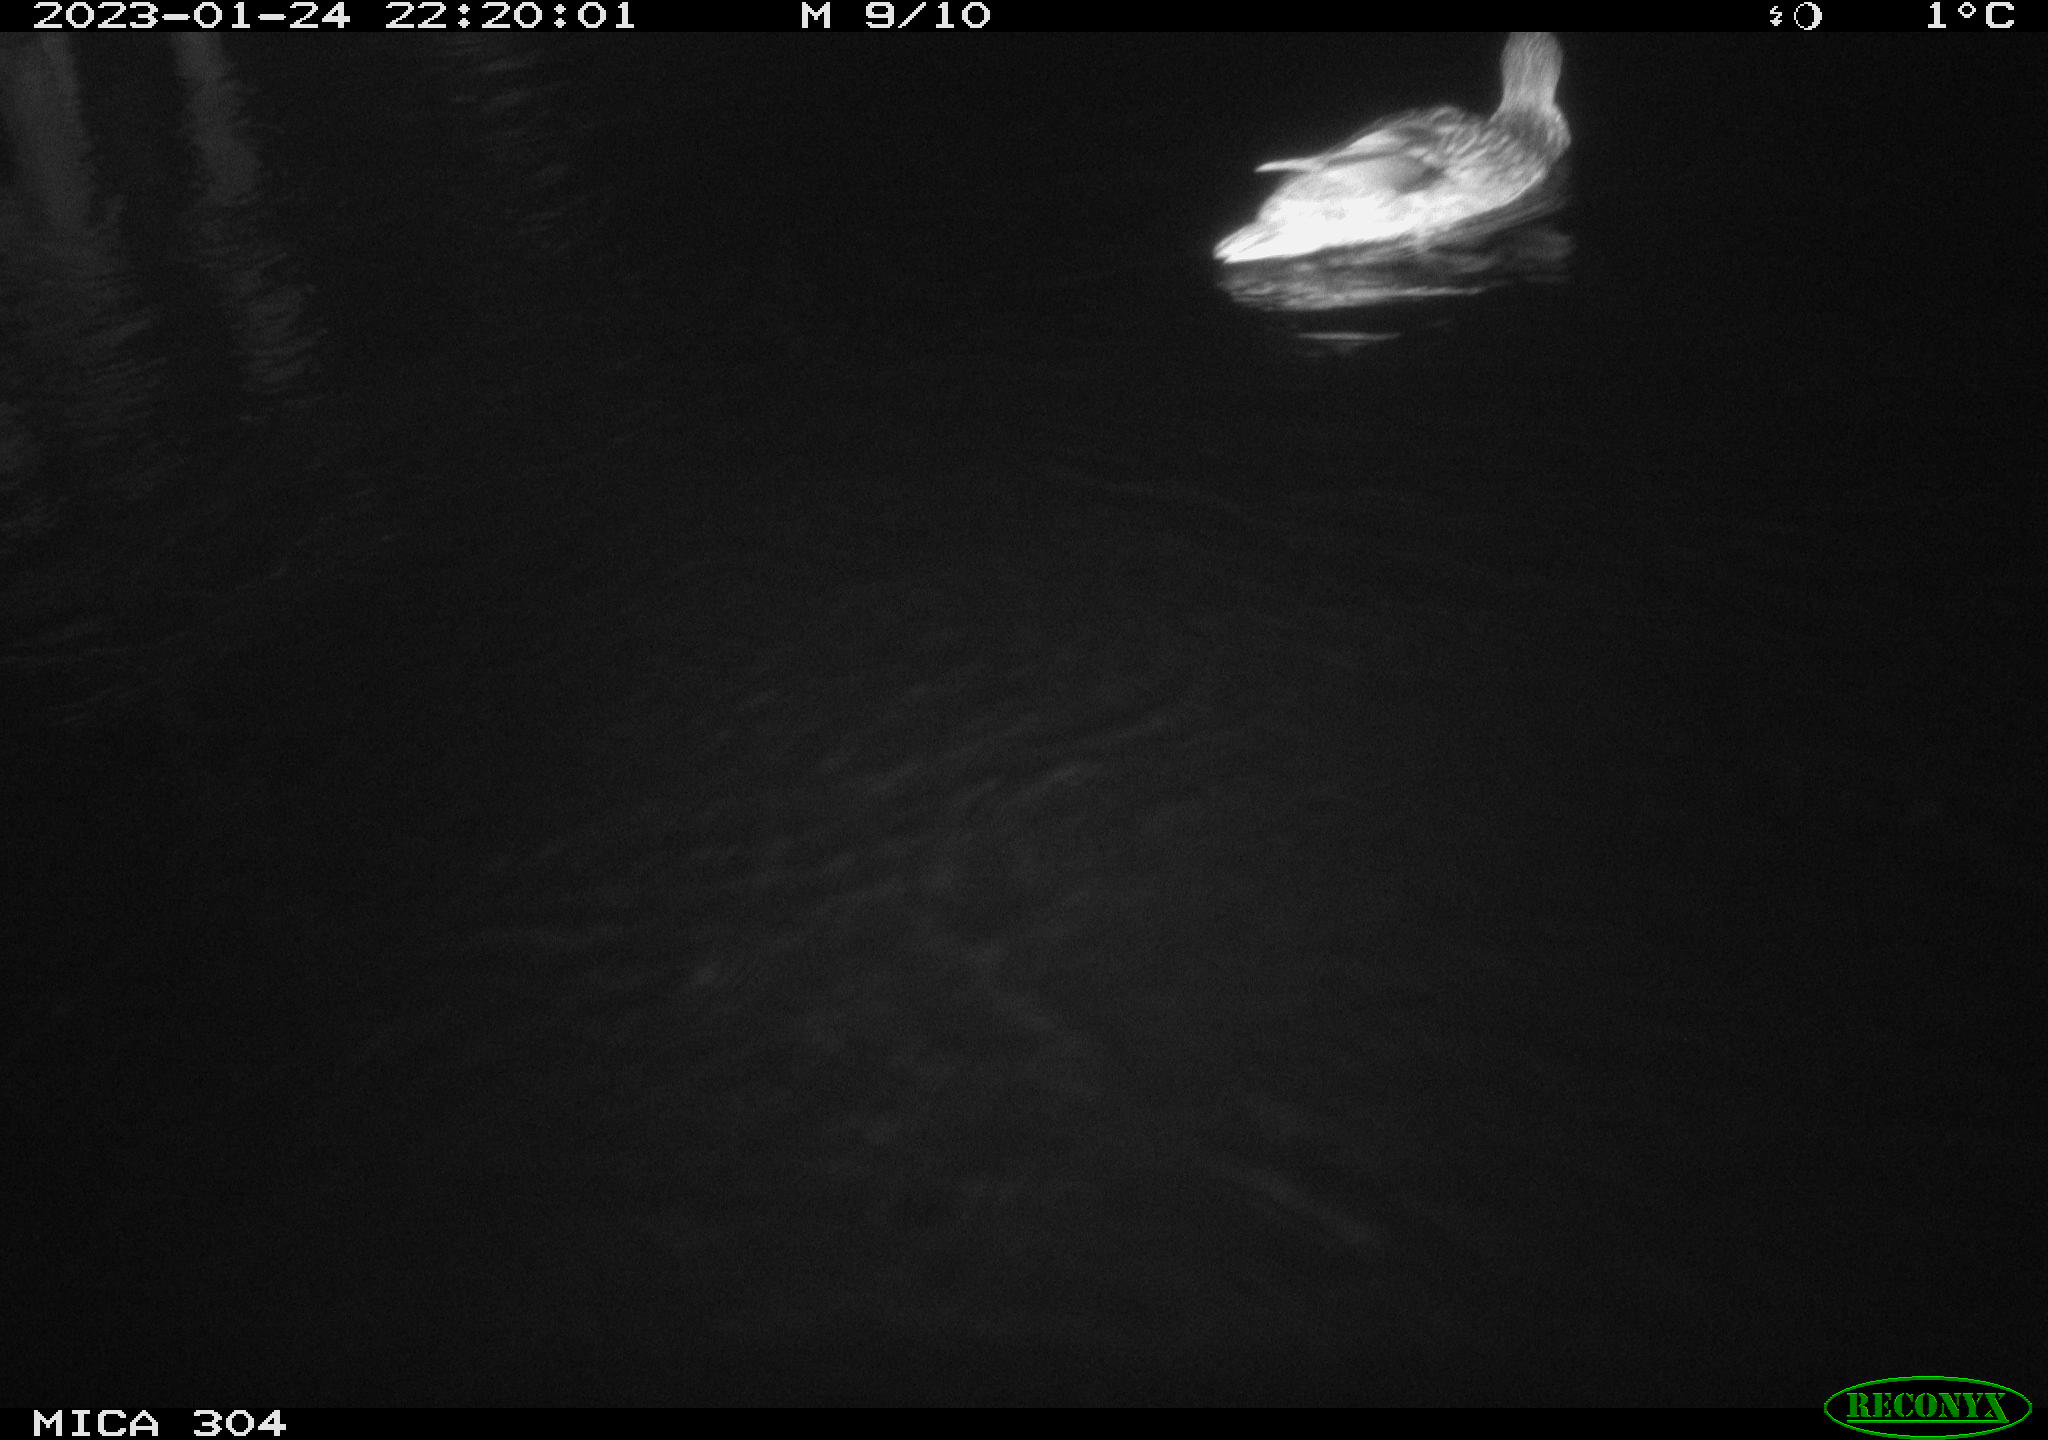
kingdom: Animalia
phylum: Chordata
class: Aves
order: Anseriformes
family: Anatidae
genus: Anas
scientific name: Anas
